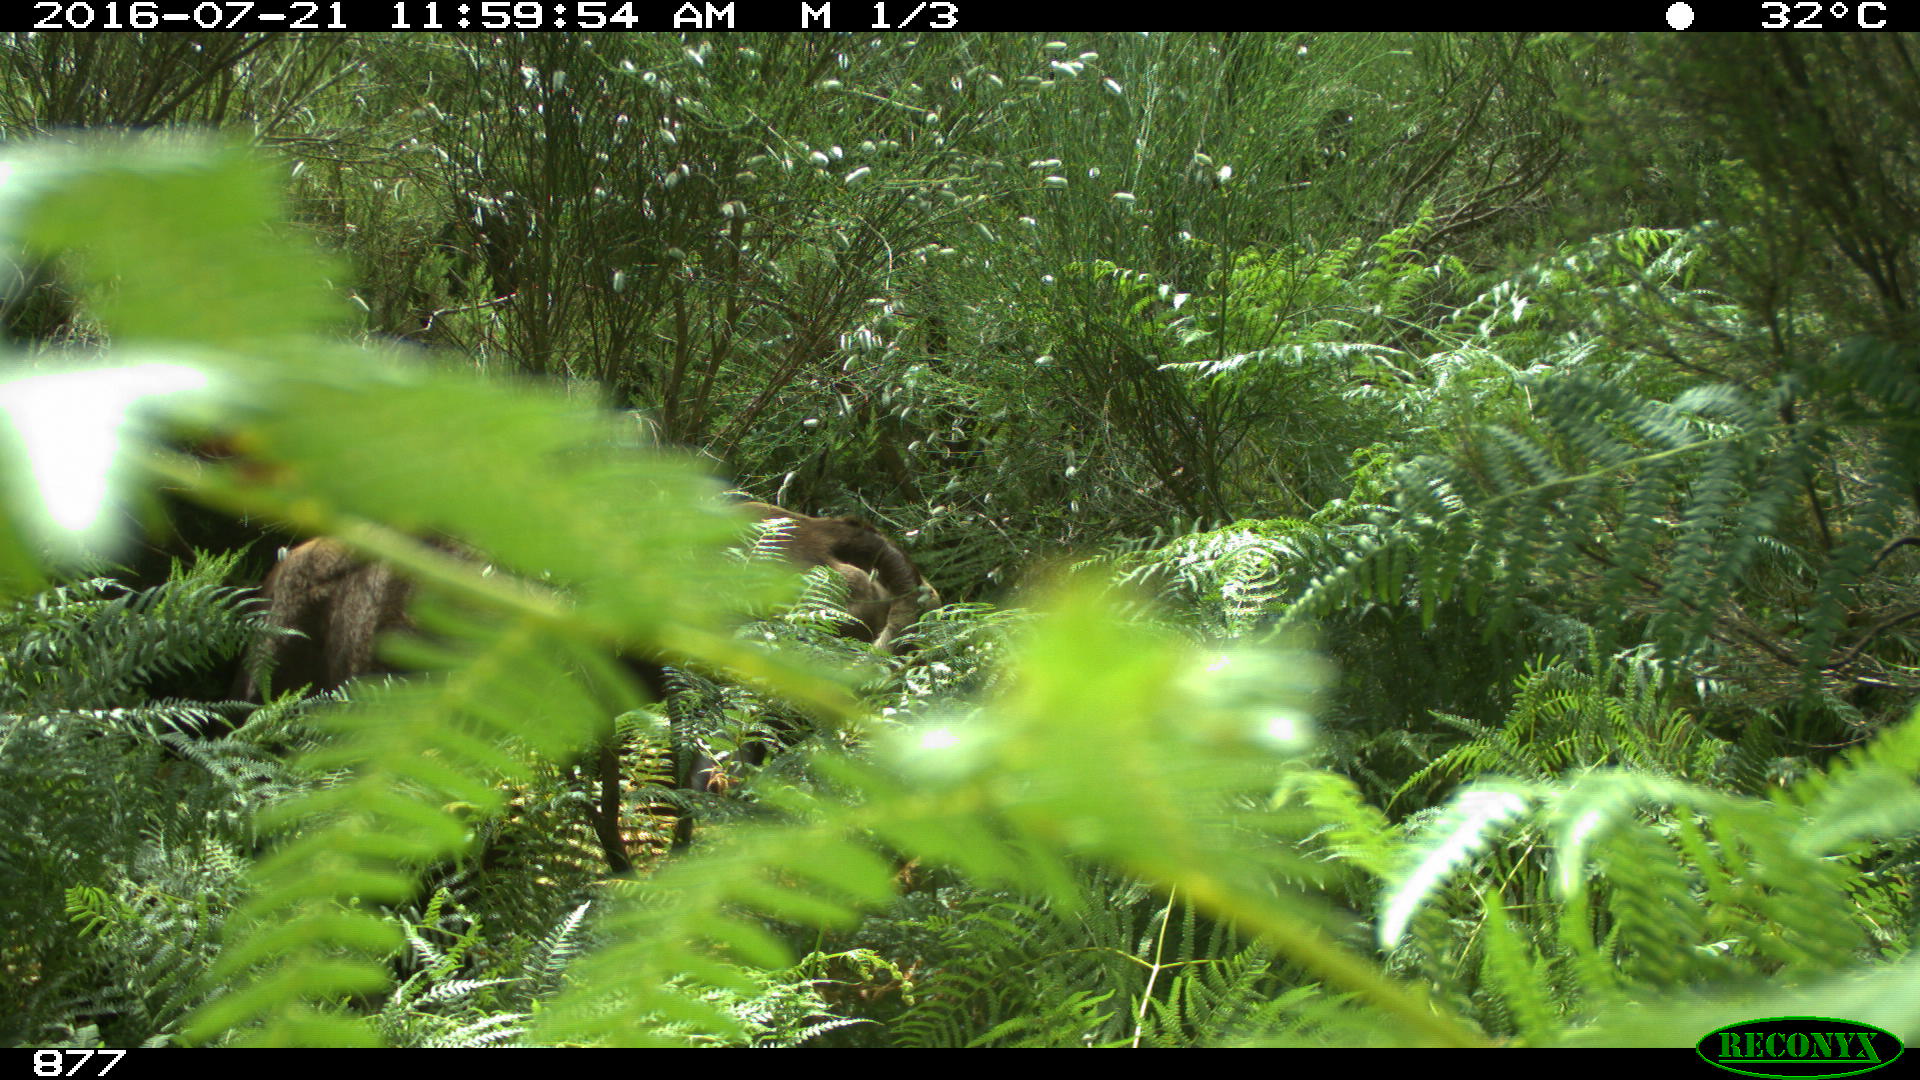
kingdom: Animalia
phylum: Chordata
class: Mammalia
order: Artiodactyla
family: Bovidae
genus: Bos
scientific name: Bos taurus
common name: Domesticated cattle
